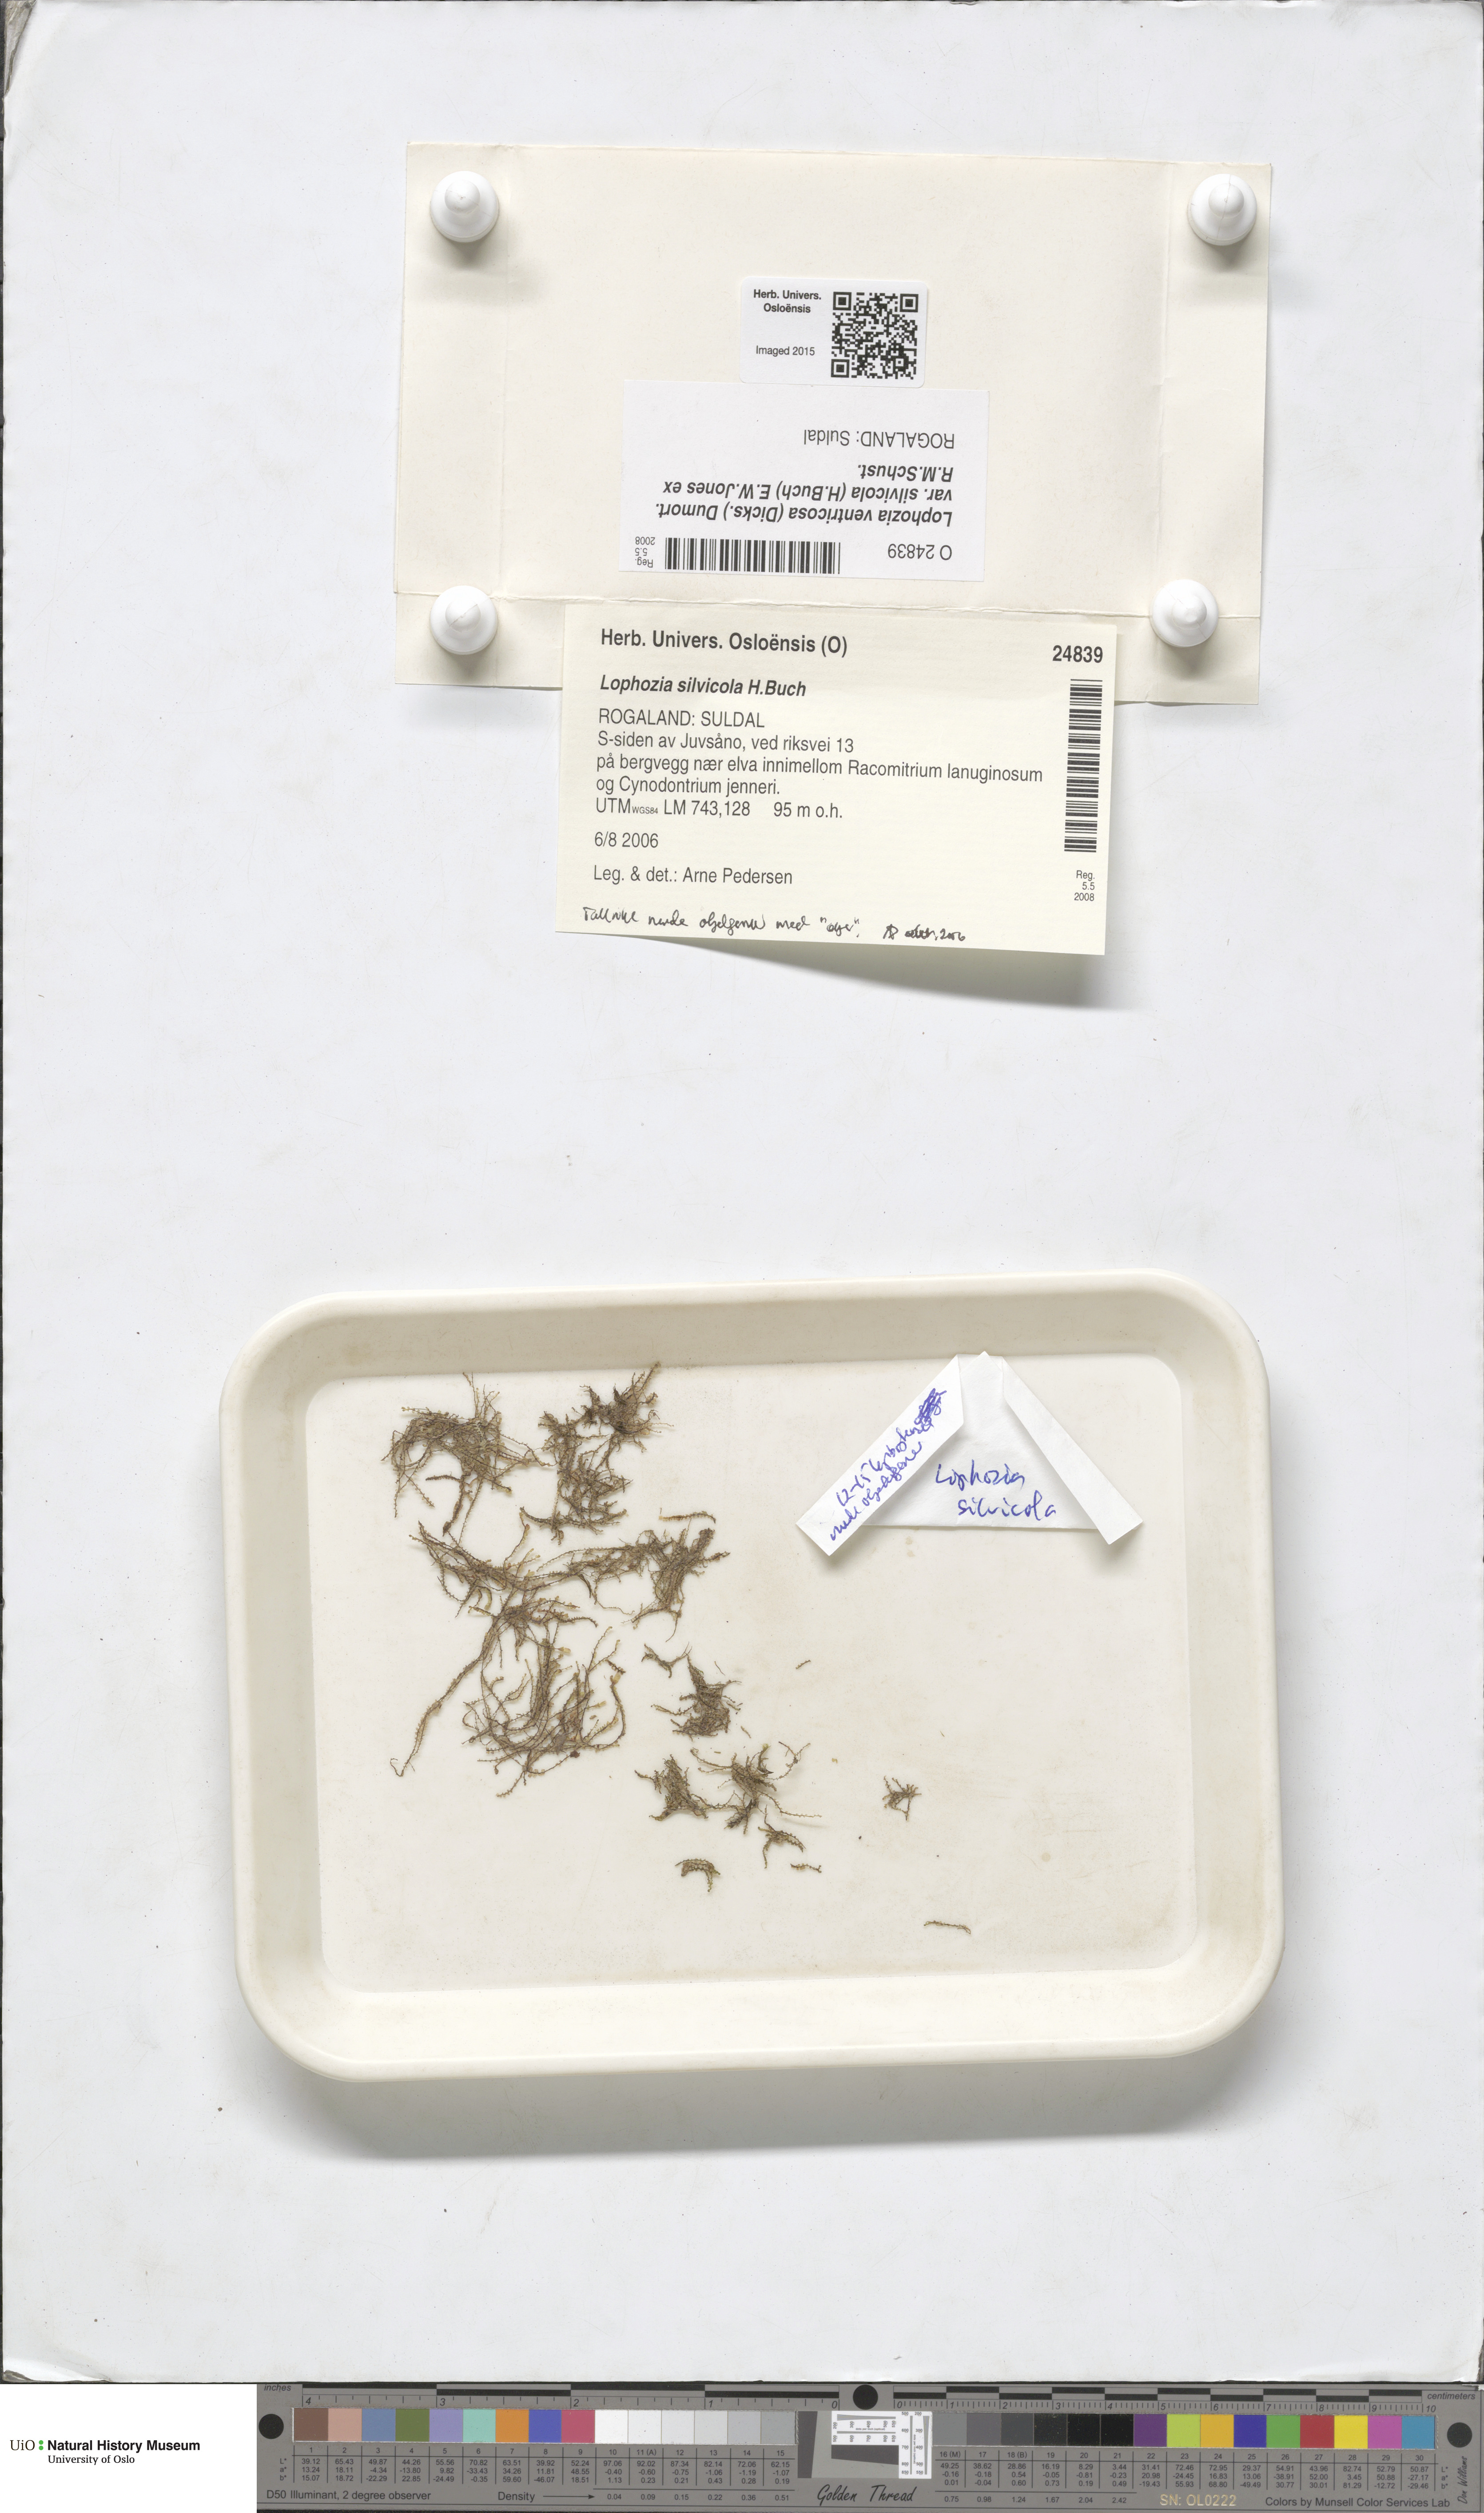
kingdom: Plantae
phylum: Marchantiophyta
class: Jungermanniopsida
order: Jungermanniales
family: Lophoziaceae
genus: Lophozia
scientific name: Lophozia silvicola
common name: Forest notchwort
